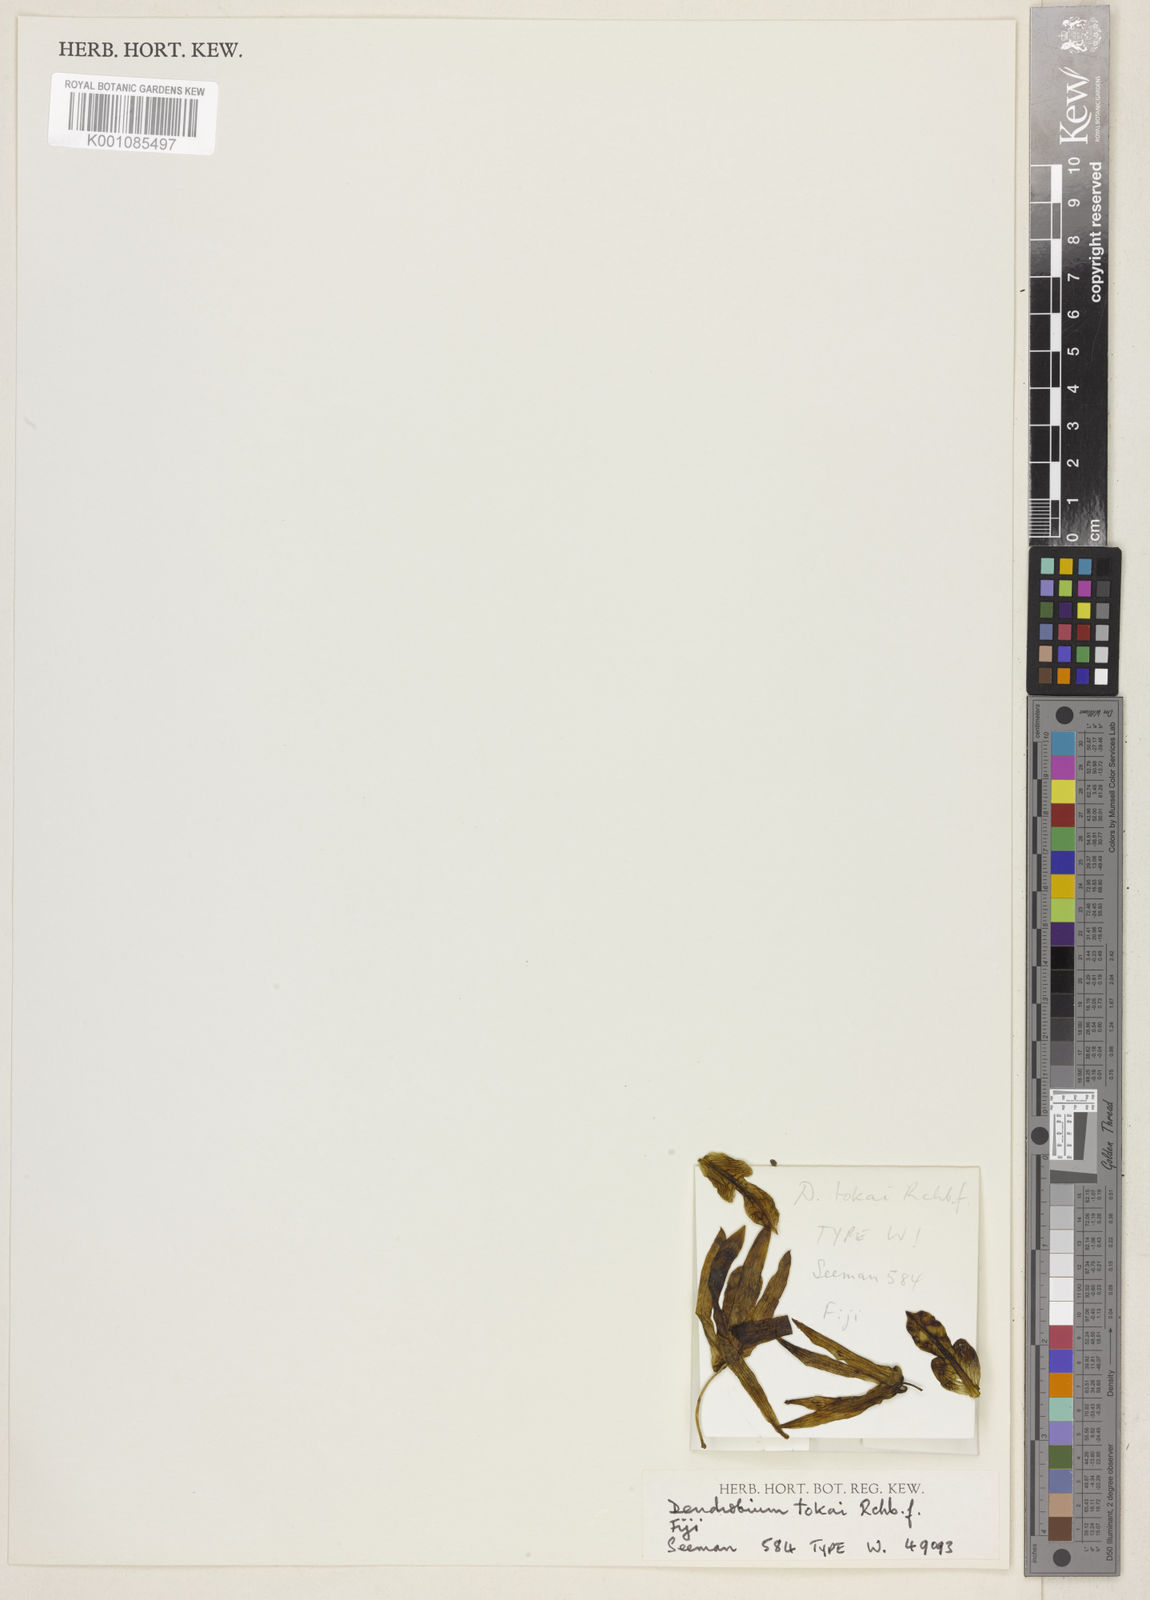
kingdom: Plantae
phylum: Tracheophyta
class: Liliopsida
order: Asparagales
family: Orchidaceae
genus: Dendrobium
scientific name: Dendrobium tokai
